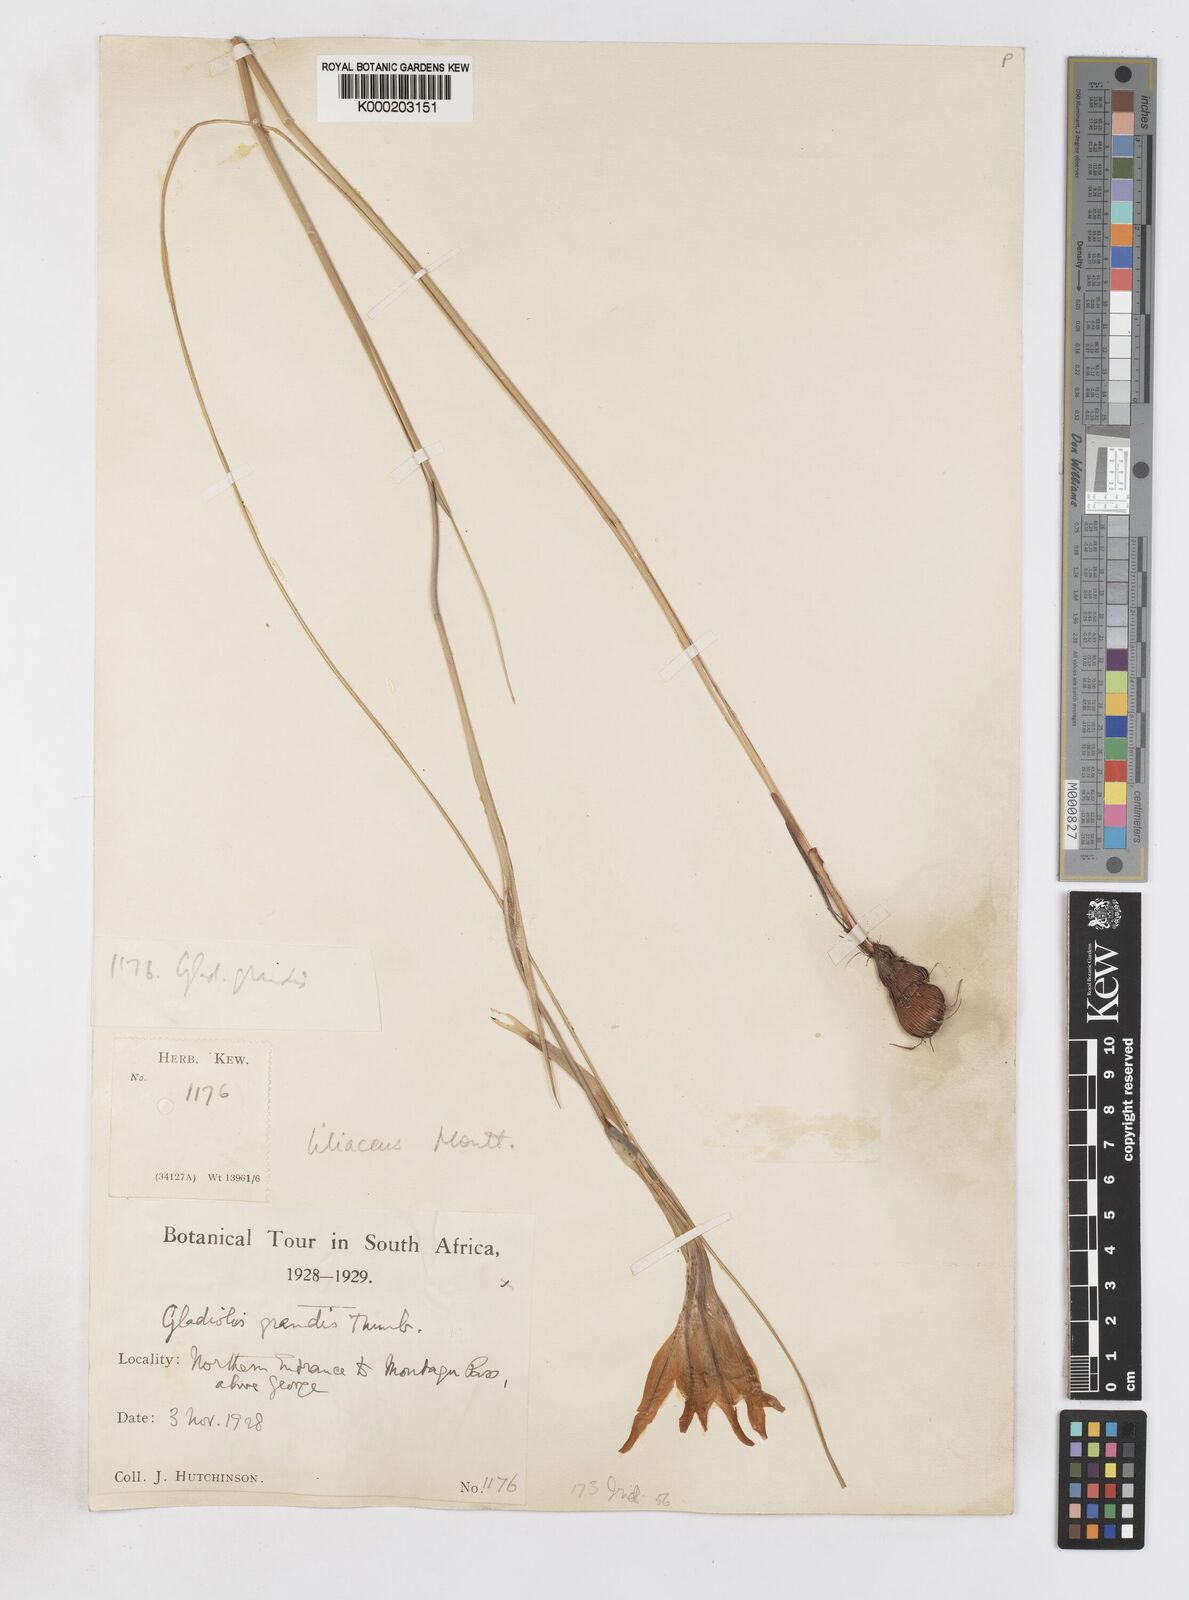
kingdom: Plantae
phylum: Tracheophyta
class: Liliopsida
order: Asparagales
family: Iridaceae
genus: Gladiolus
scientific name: Gladiolus liliaceus
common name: Large brown afrikaner
